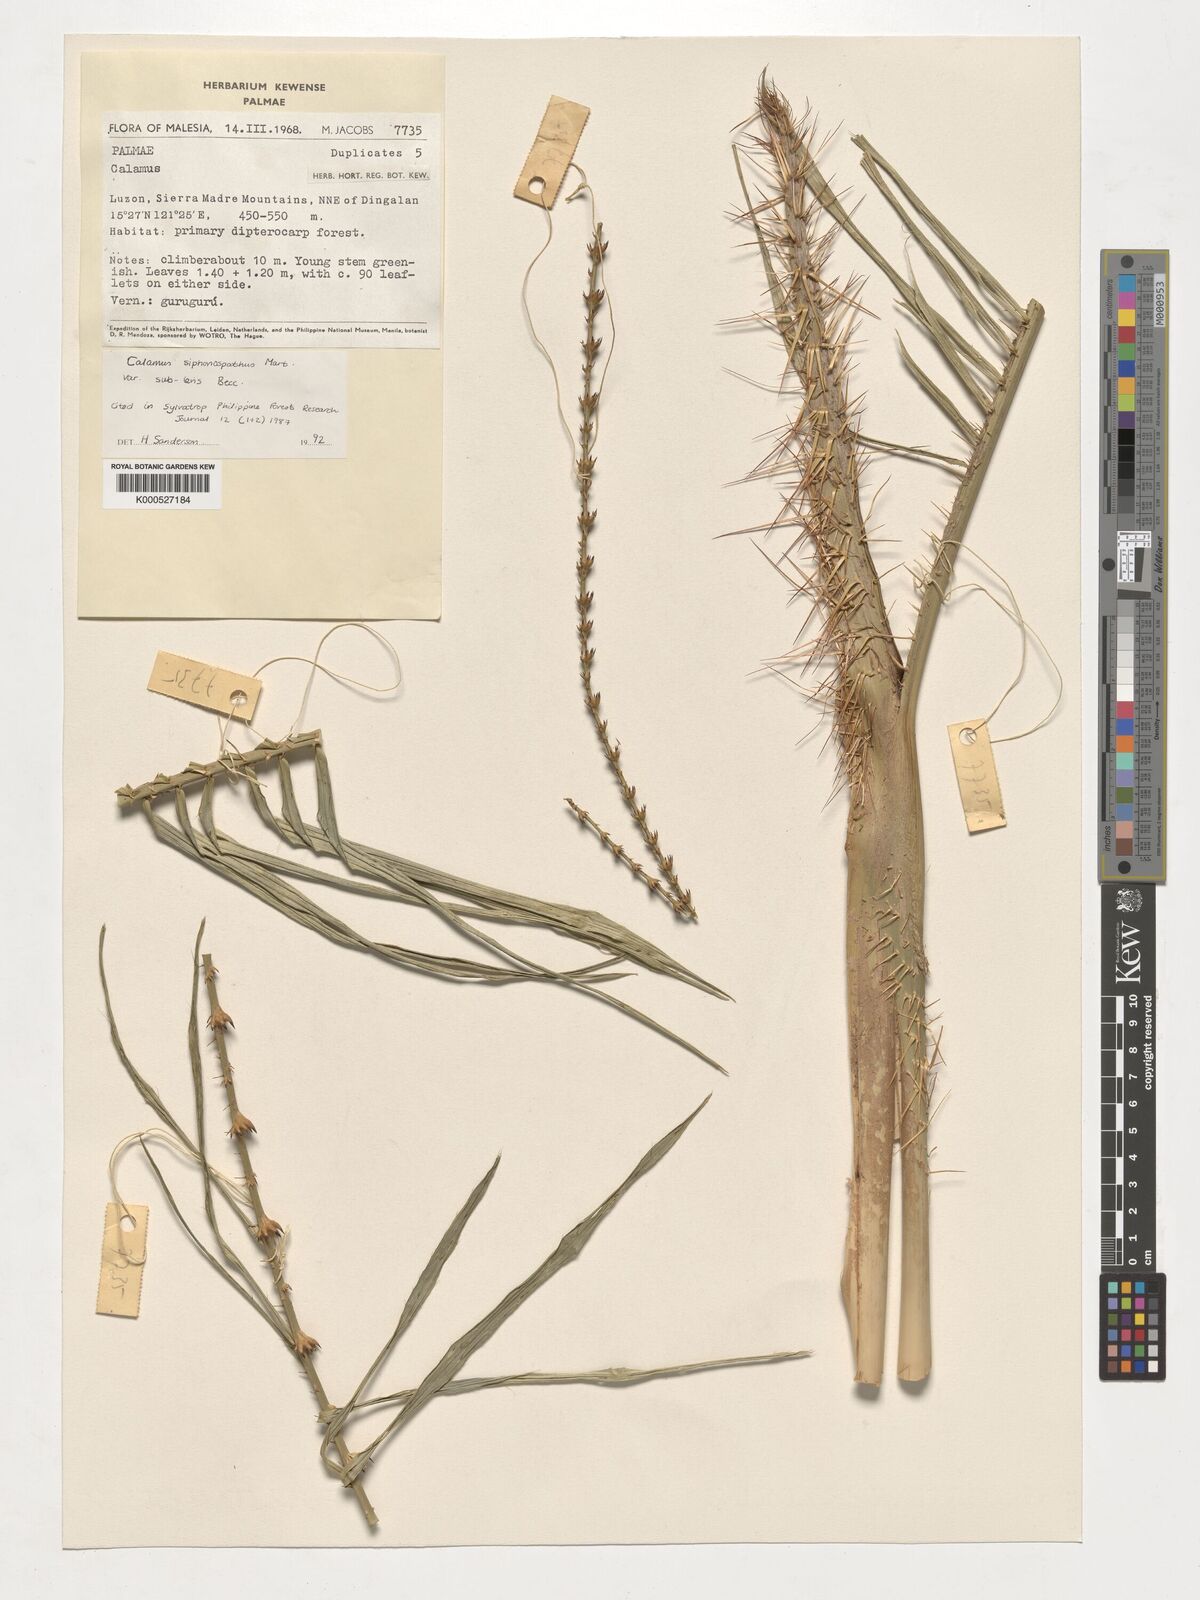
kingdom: Plantae
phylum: Tracheophyta
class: Liliopsida
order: Arecales
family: Arecaceae
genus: Calamus
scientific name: Calamus siphonospathus
